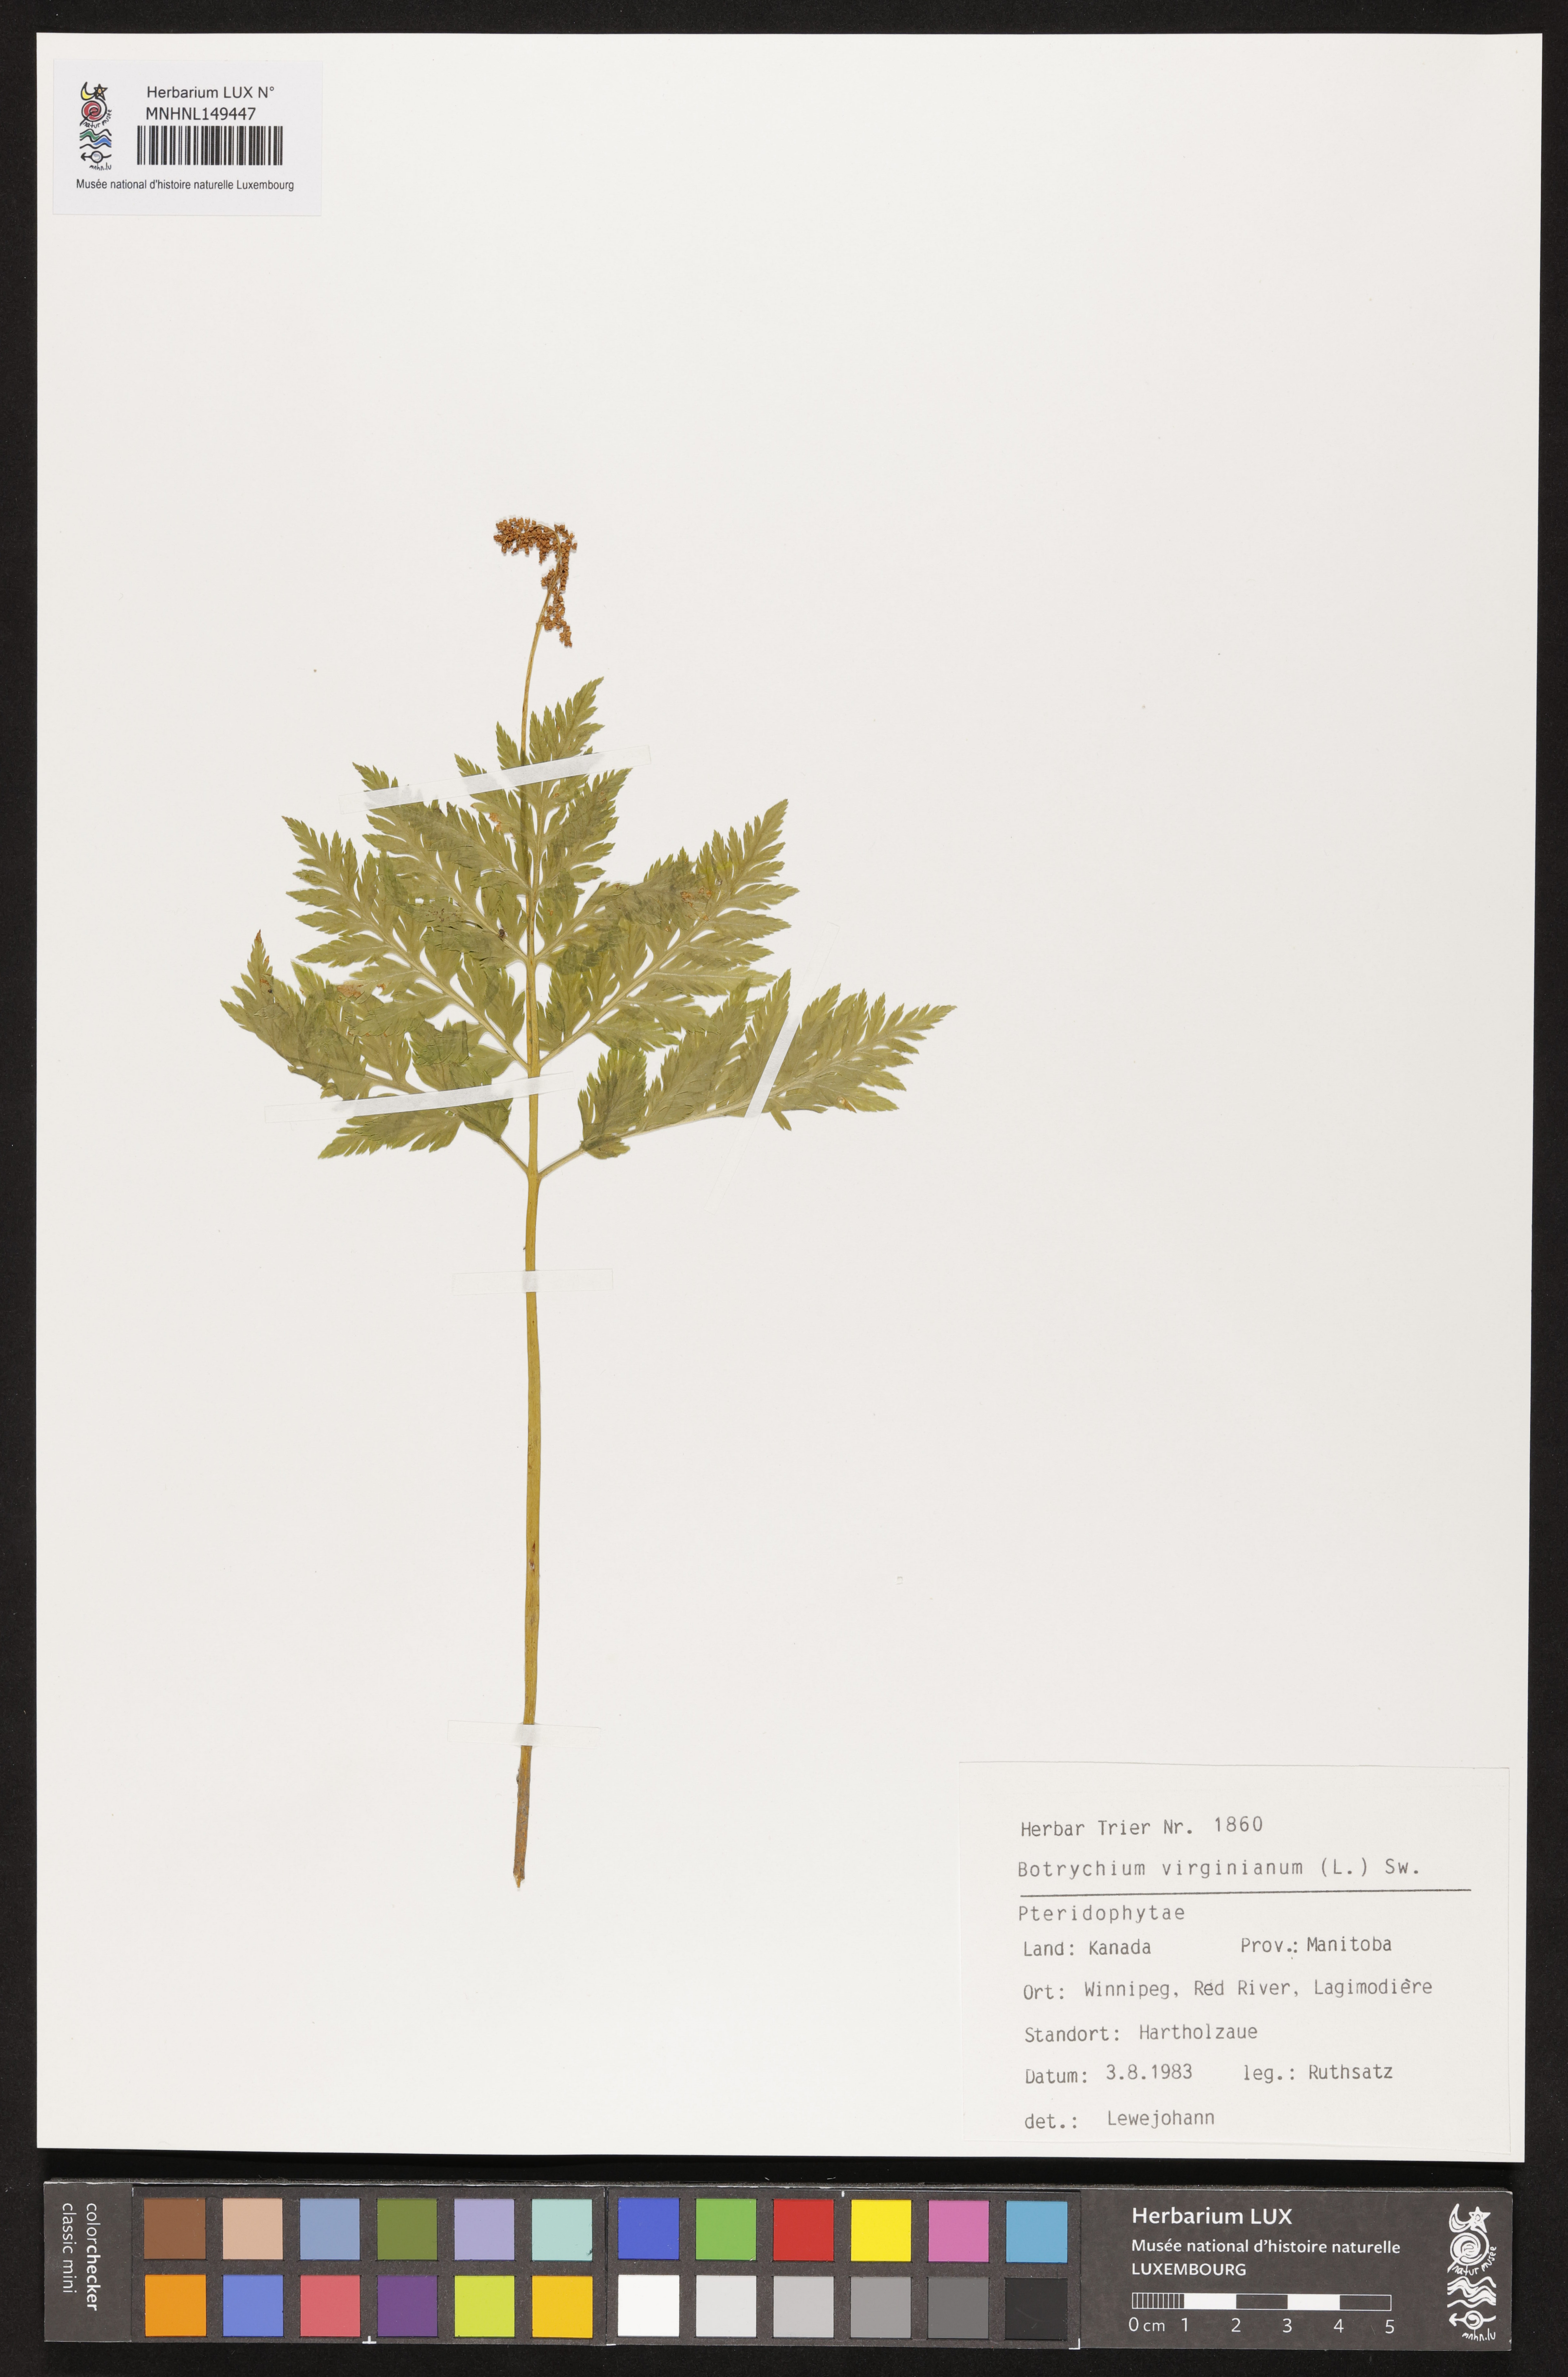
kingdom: Plantae
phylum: Tracheophyta
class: Polypodiopsida
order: Ophioglossales
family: Ophioglossaceae
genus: Botrypus
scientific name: Botrypus virginianus
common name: Common grapefern
